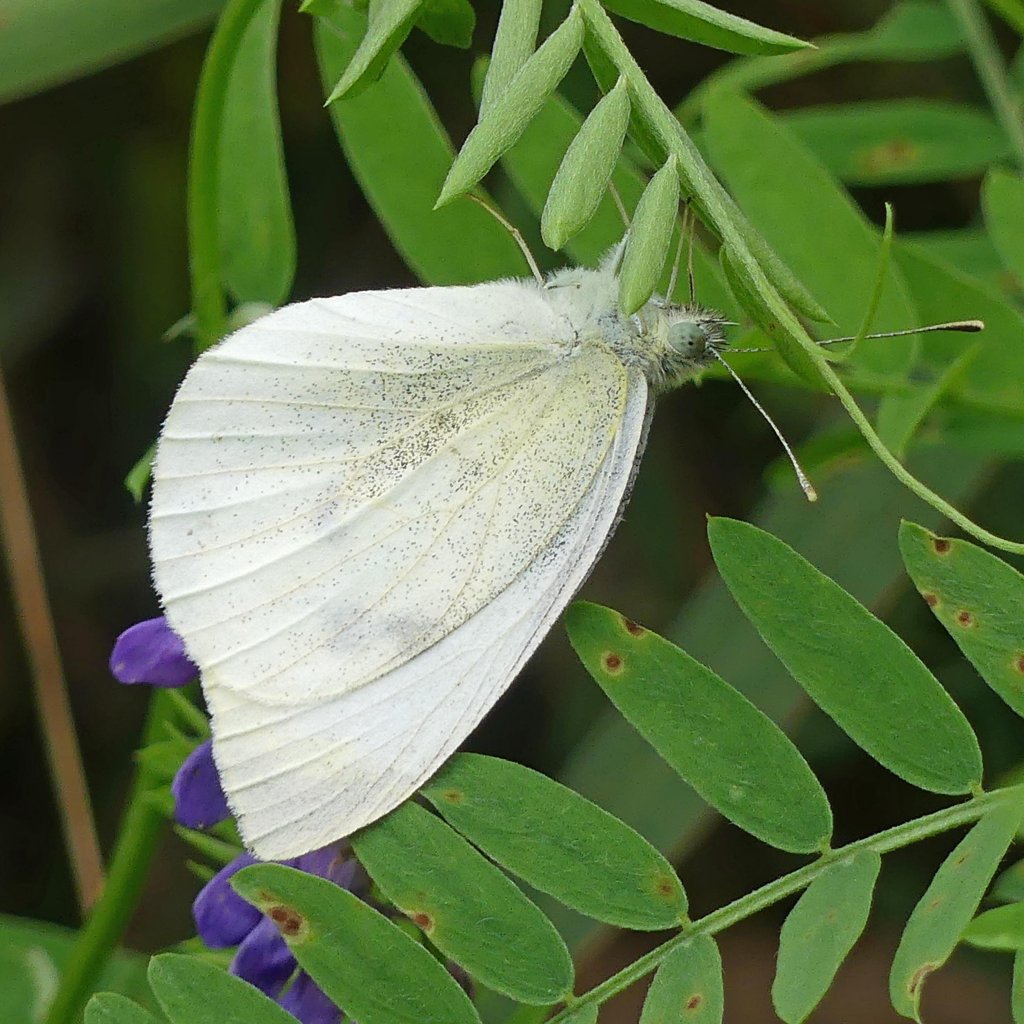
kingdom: Animalia
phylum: Arthropoda
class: Insecta
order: Lepidoptera
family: Pieridae
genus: Pieris
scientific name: Pieris rapae
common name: Cabbage White
